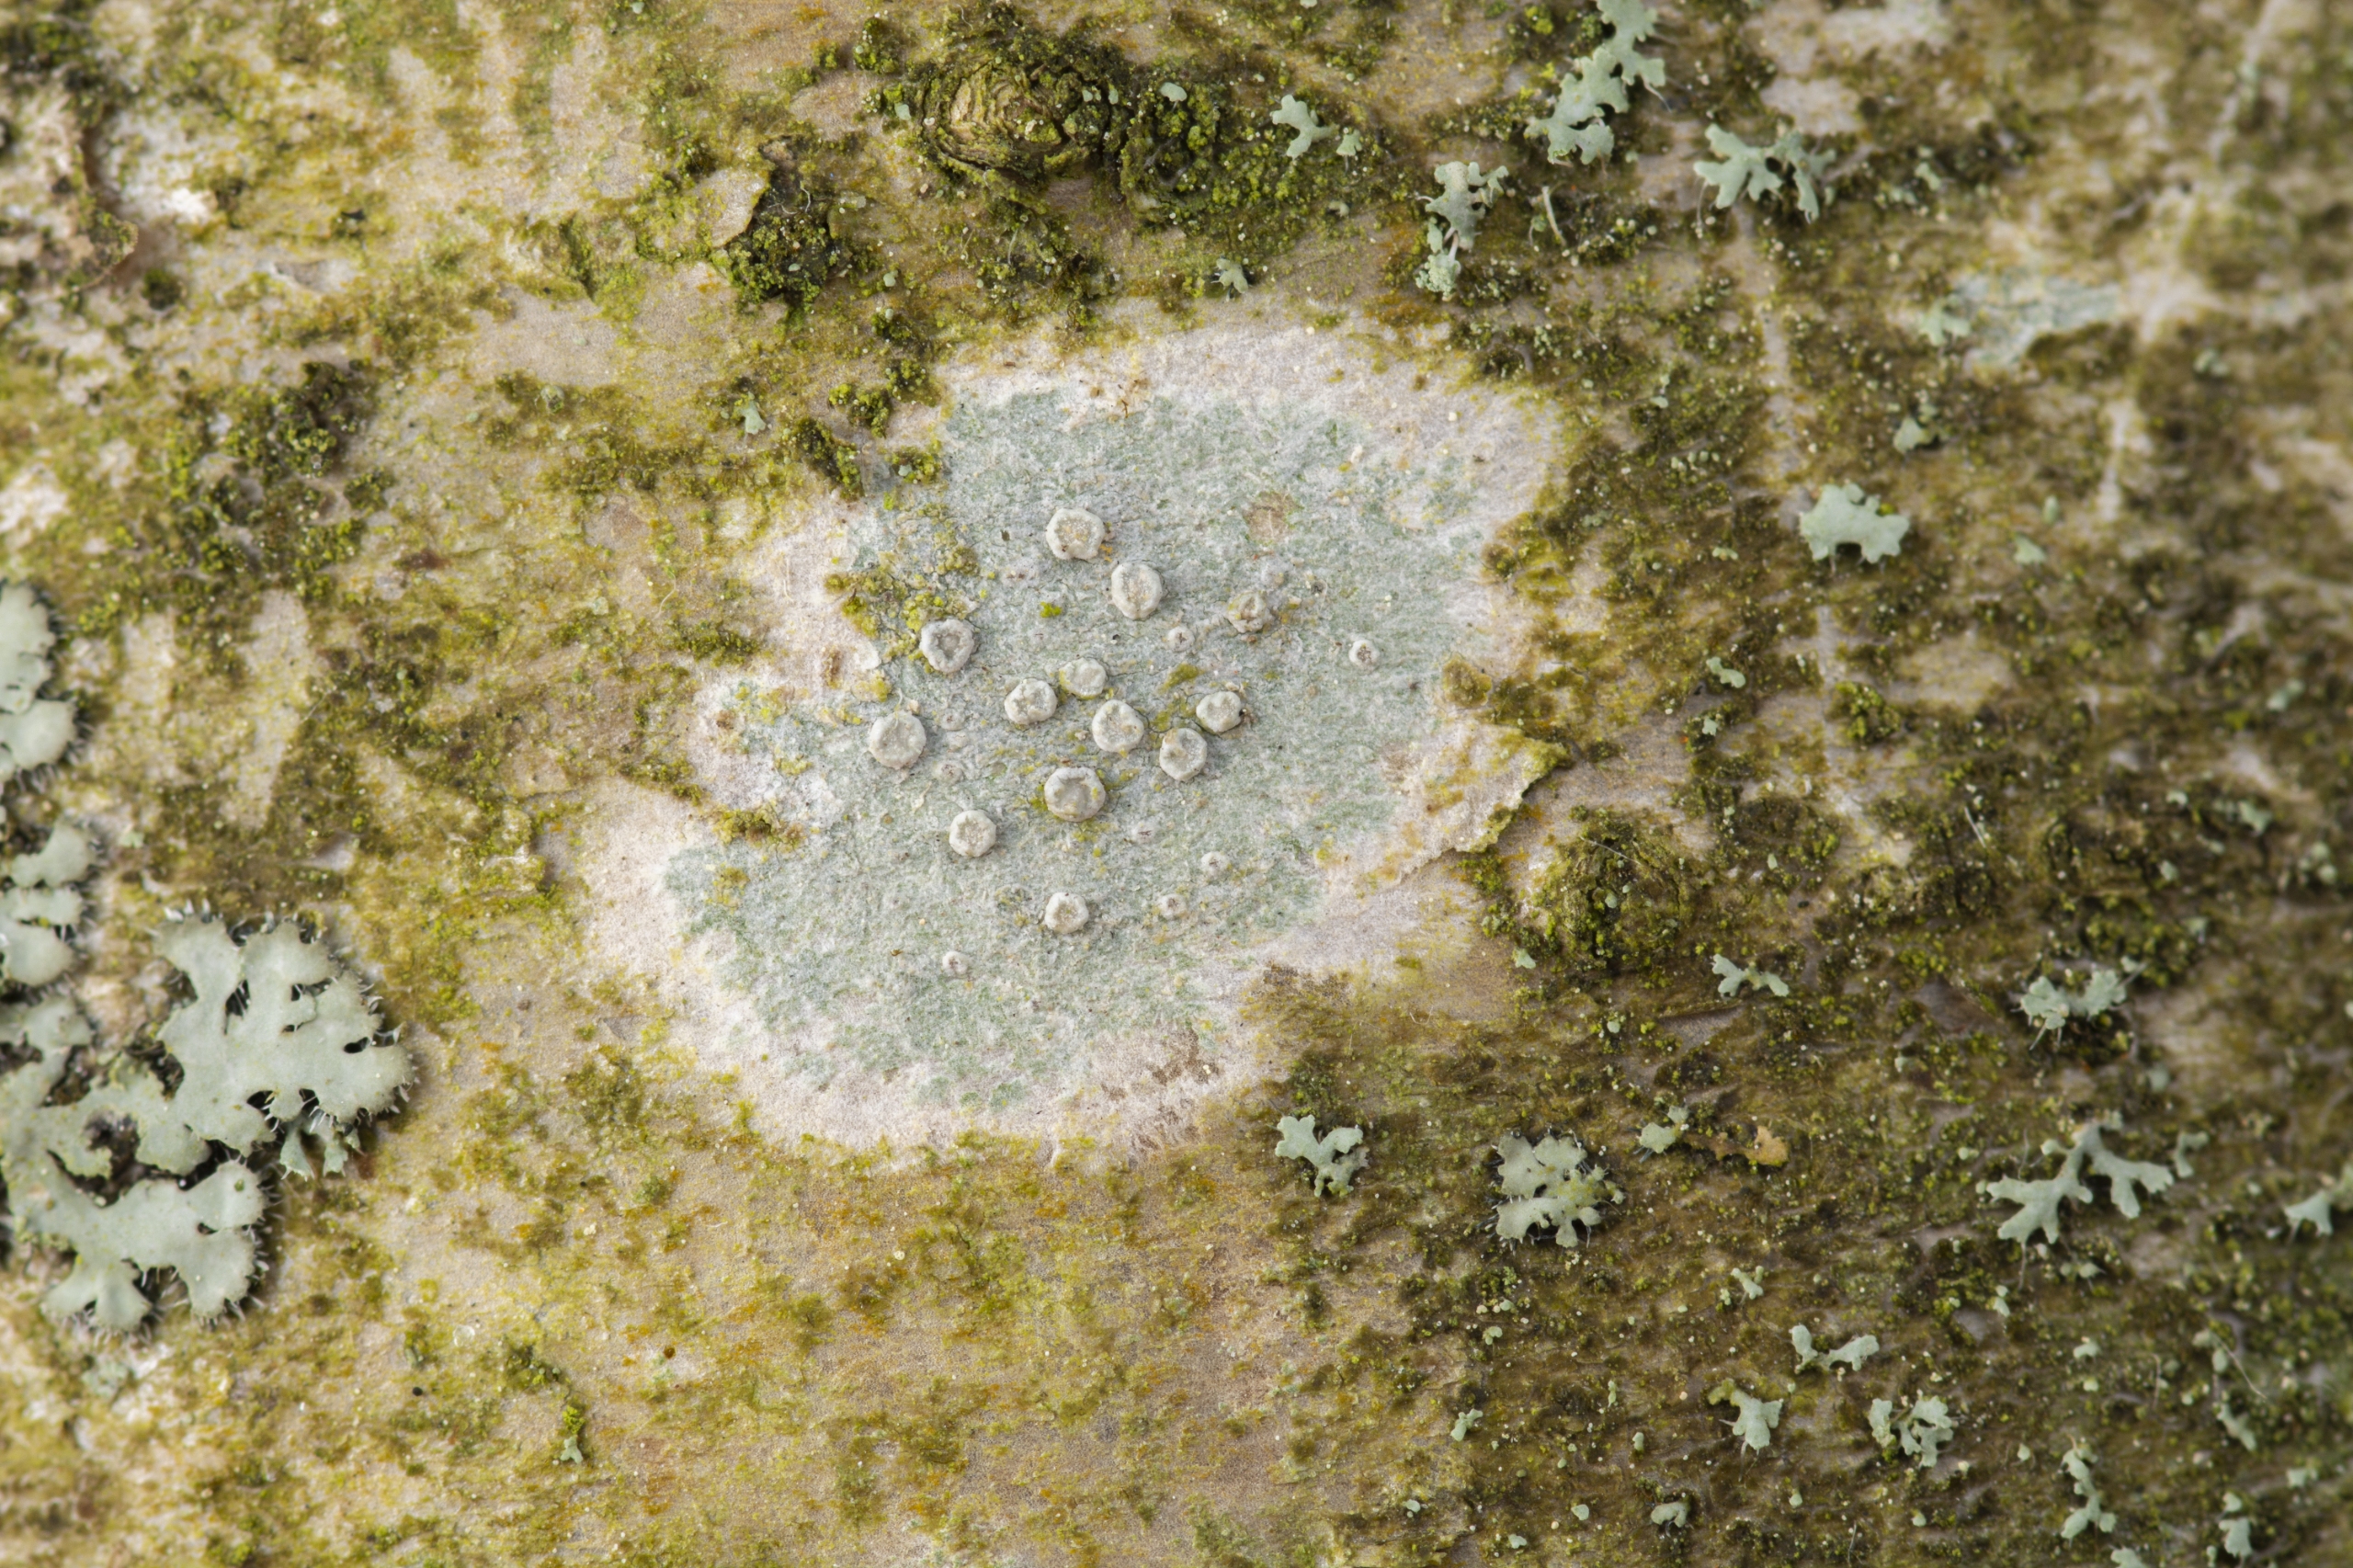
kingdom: Fungi
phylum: Ascomycota
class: Lecanoromycetes
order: Lecanorales
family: Lecanoraceae
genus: Glaucomaria
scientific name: Glaucomaria carpinea
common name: Hviddugget kantskivelav
